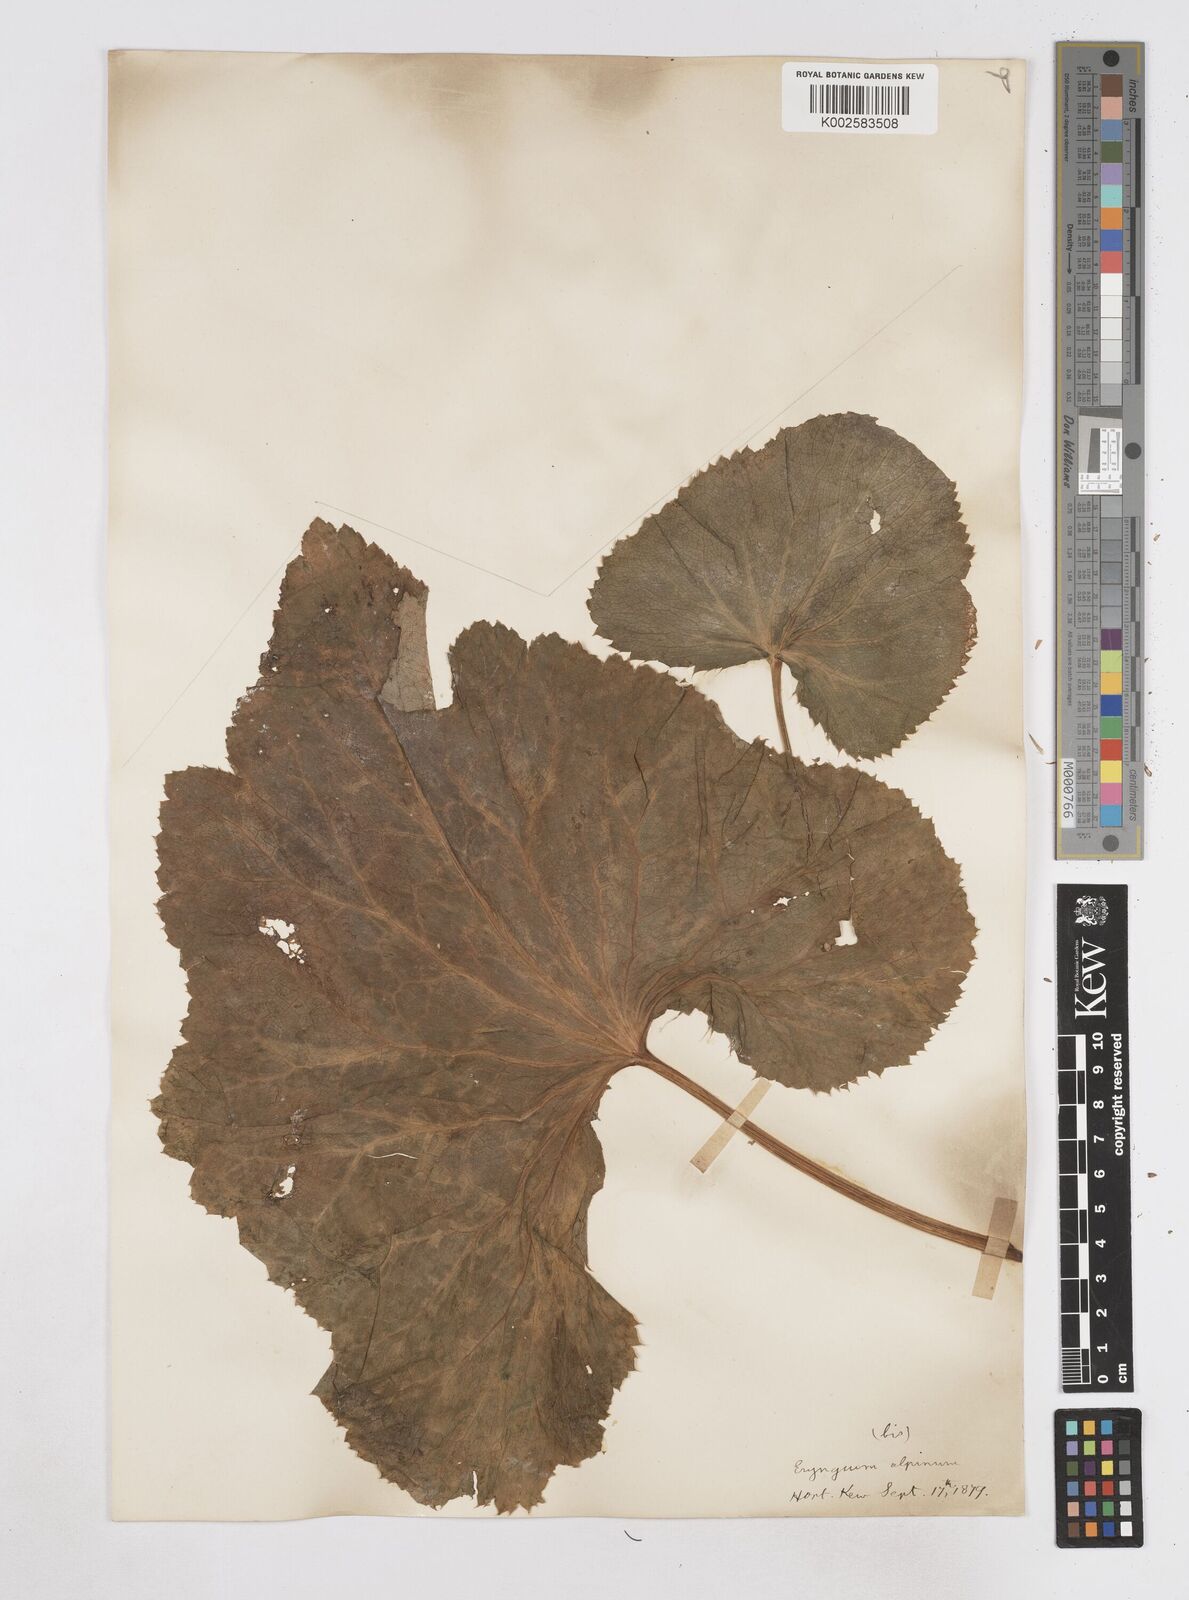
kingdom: Plantae
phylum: Tracheophyta
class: Magnoliopsida
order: Apiales
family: Apiaceae
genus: Eryngium
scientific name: Eryngium alpinum
